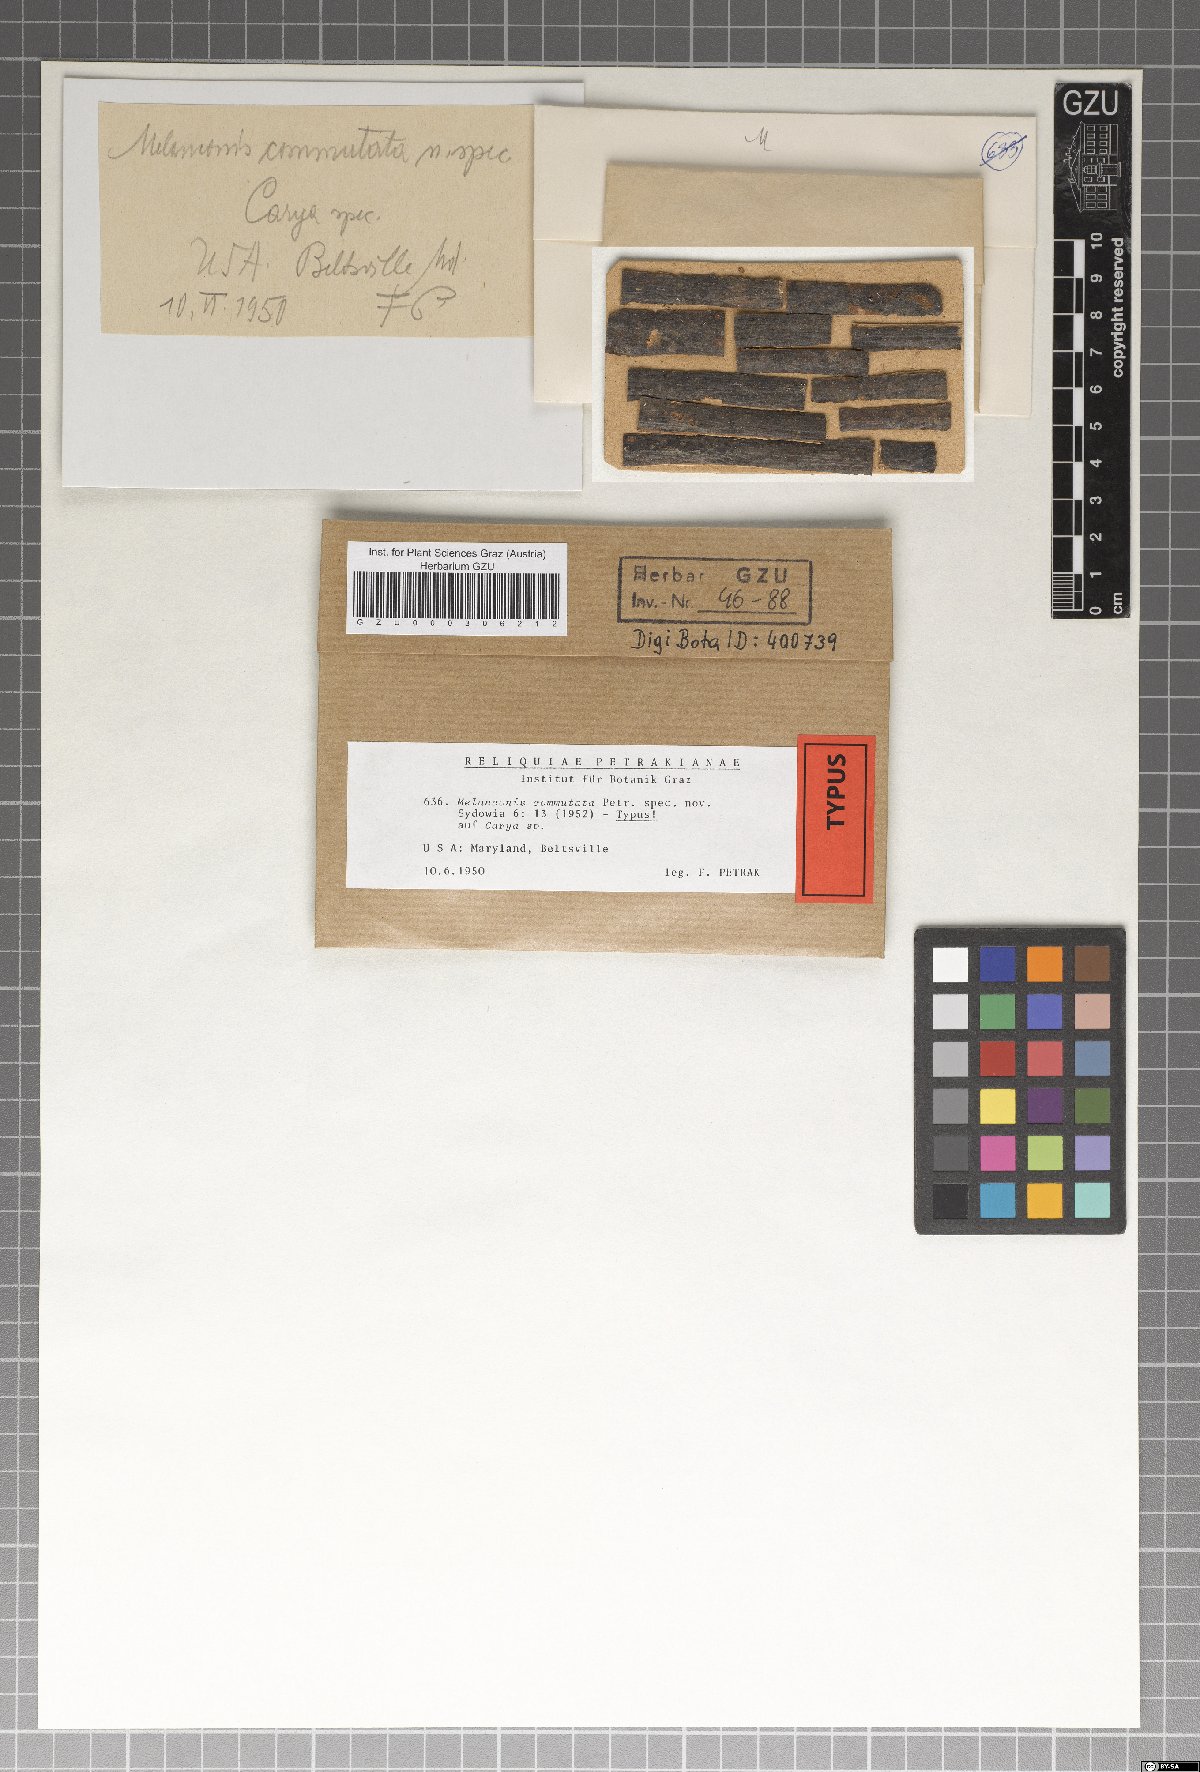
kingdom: Fungi
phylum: Ascomycota
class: Sordariomycetes
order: Diaporthales
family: Melanconidaceae
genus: Melanconis
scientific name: Melanconis commutata
